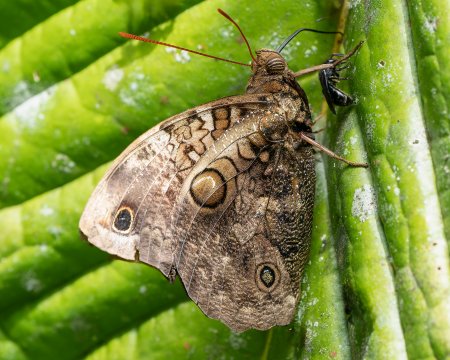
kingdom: Animalia
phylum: Arthropoda
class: Insecta
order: Lepidoptera
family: Nymphalidae
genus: Opsiphanes
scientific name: Opsiphanes cassina
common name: Split-banded Owl-Butterfly
